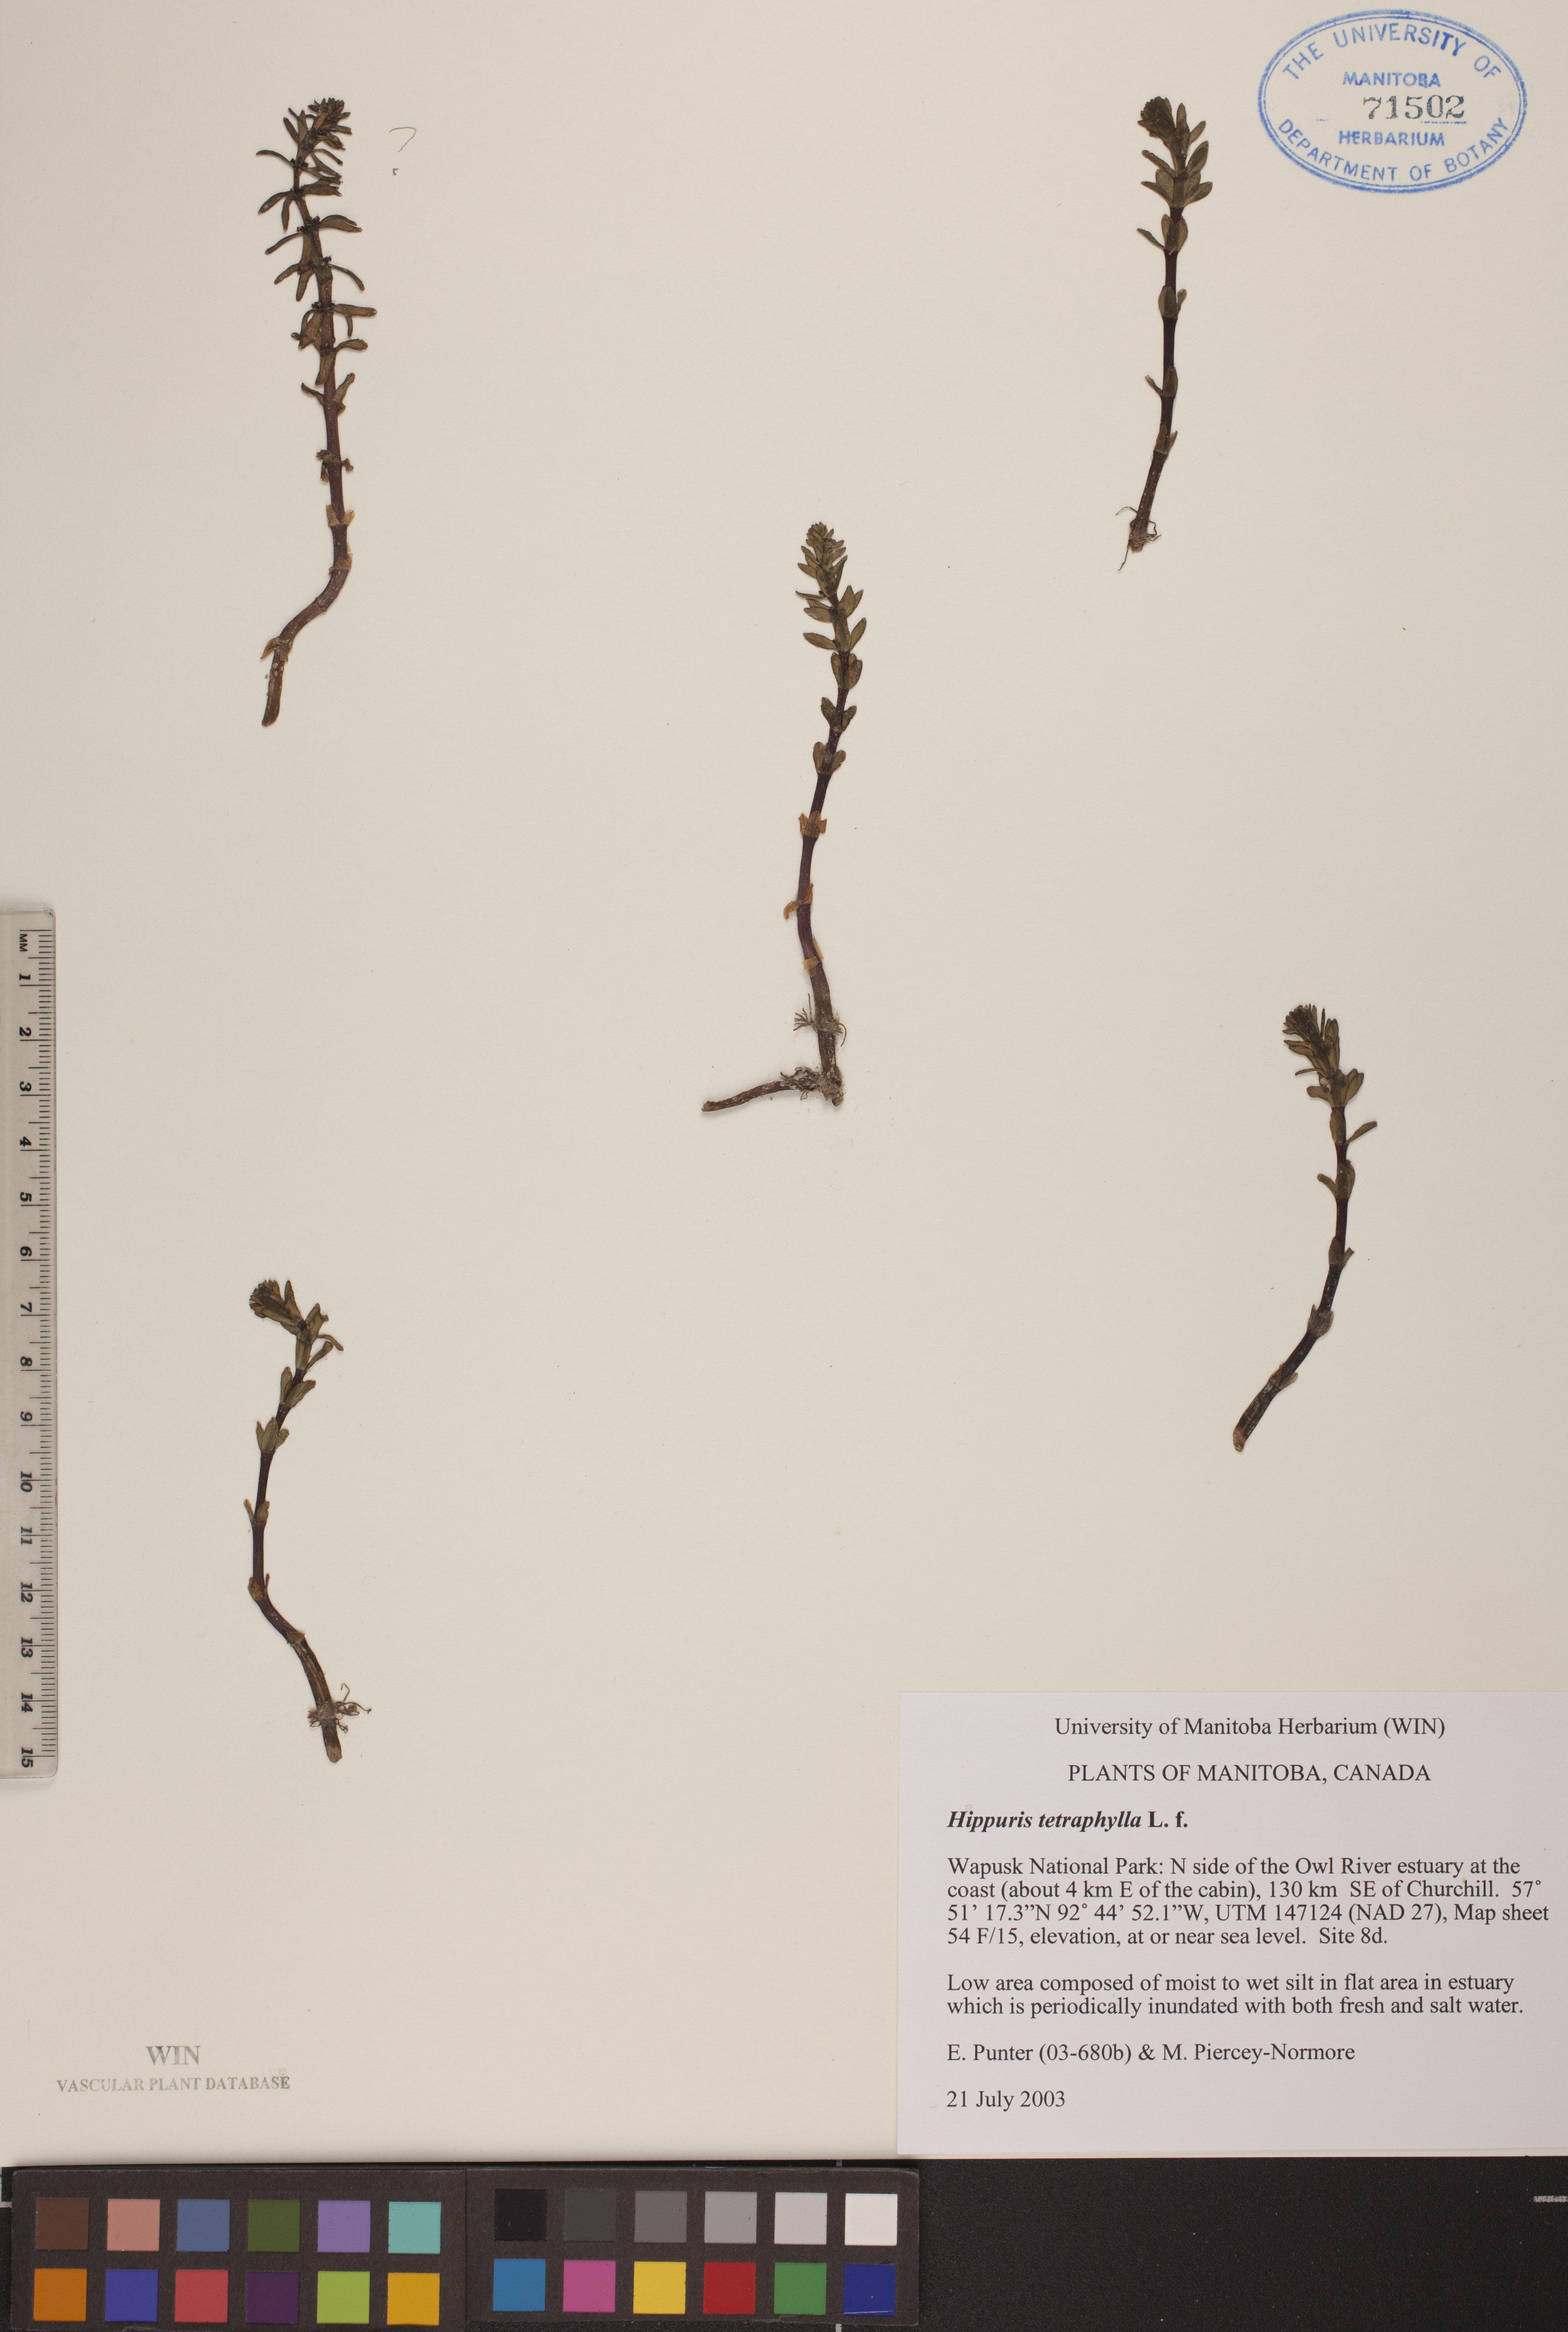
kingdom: Plantae
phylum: Tracheophyta
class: Magnoliopsida
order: Lamiales
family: Plantaginaceae
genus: Hippuris
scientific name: Hippuris tetraphylla
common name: Four-leaved mare's-tail
